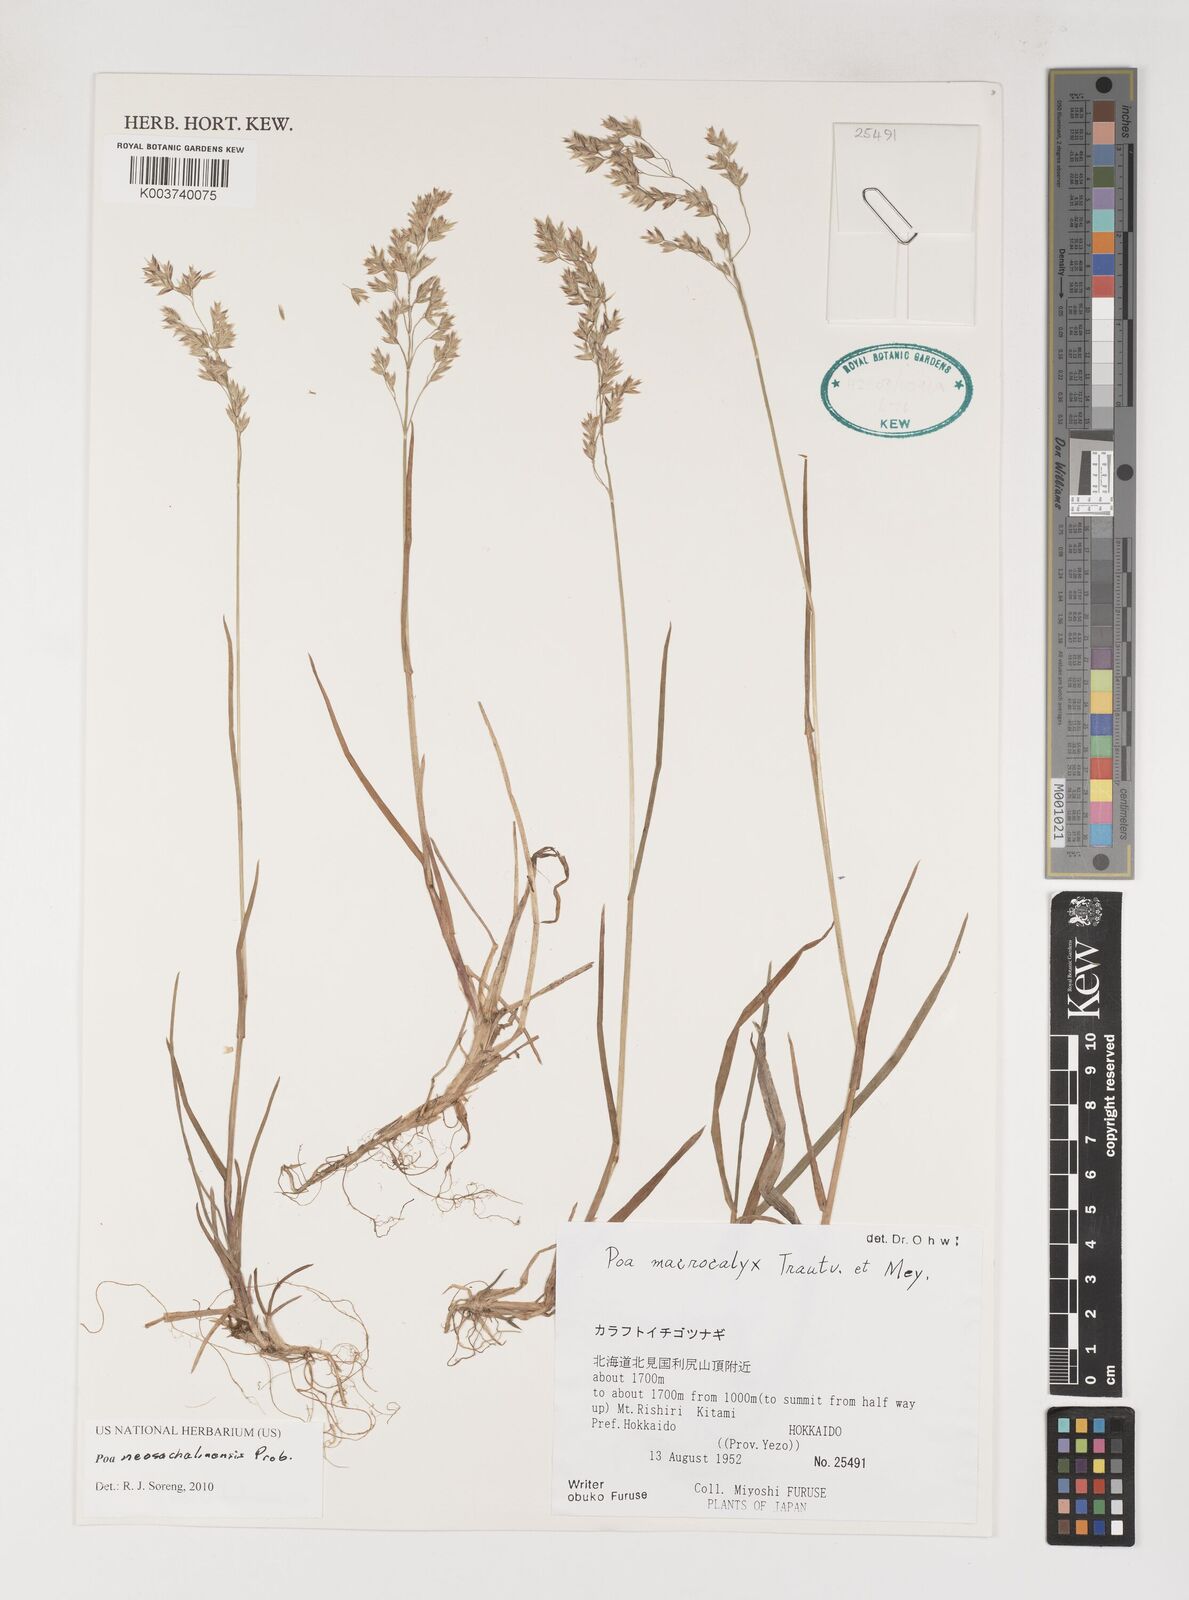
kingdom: Plantae
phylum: Tracheophyta
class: Liliopsida
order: Poales
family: Poaceae
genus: Poa
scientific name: Poa finitima
